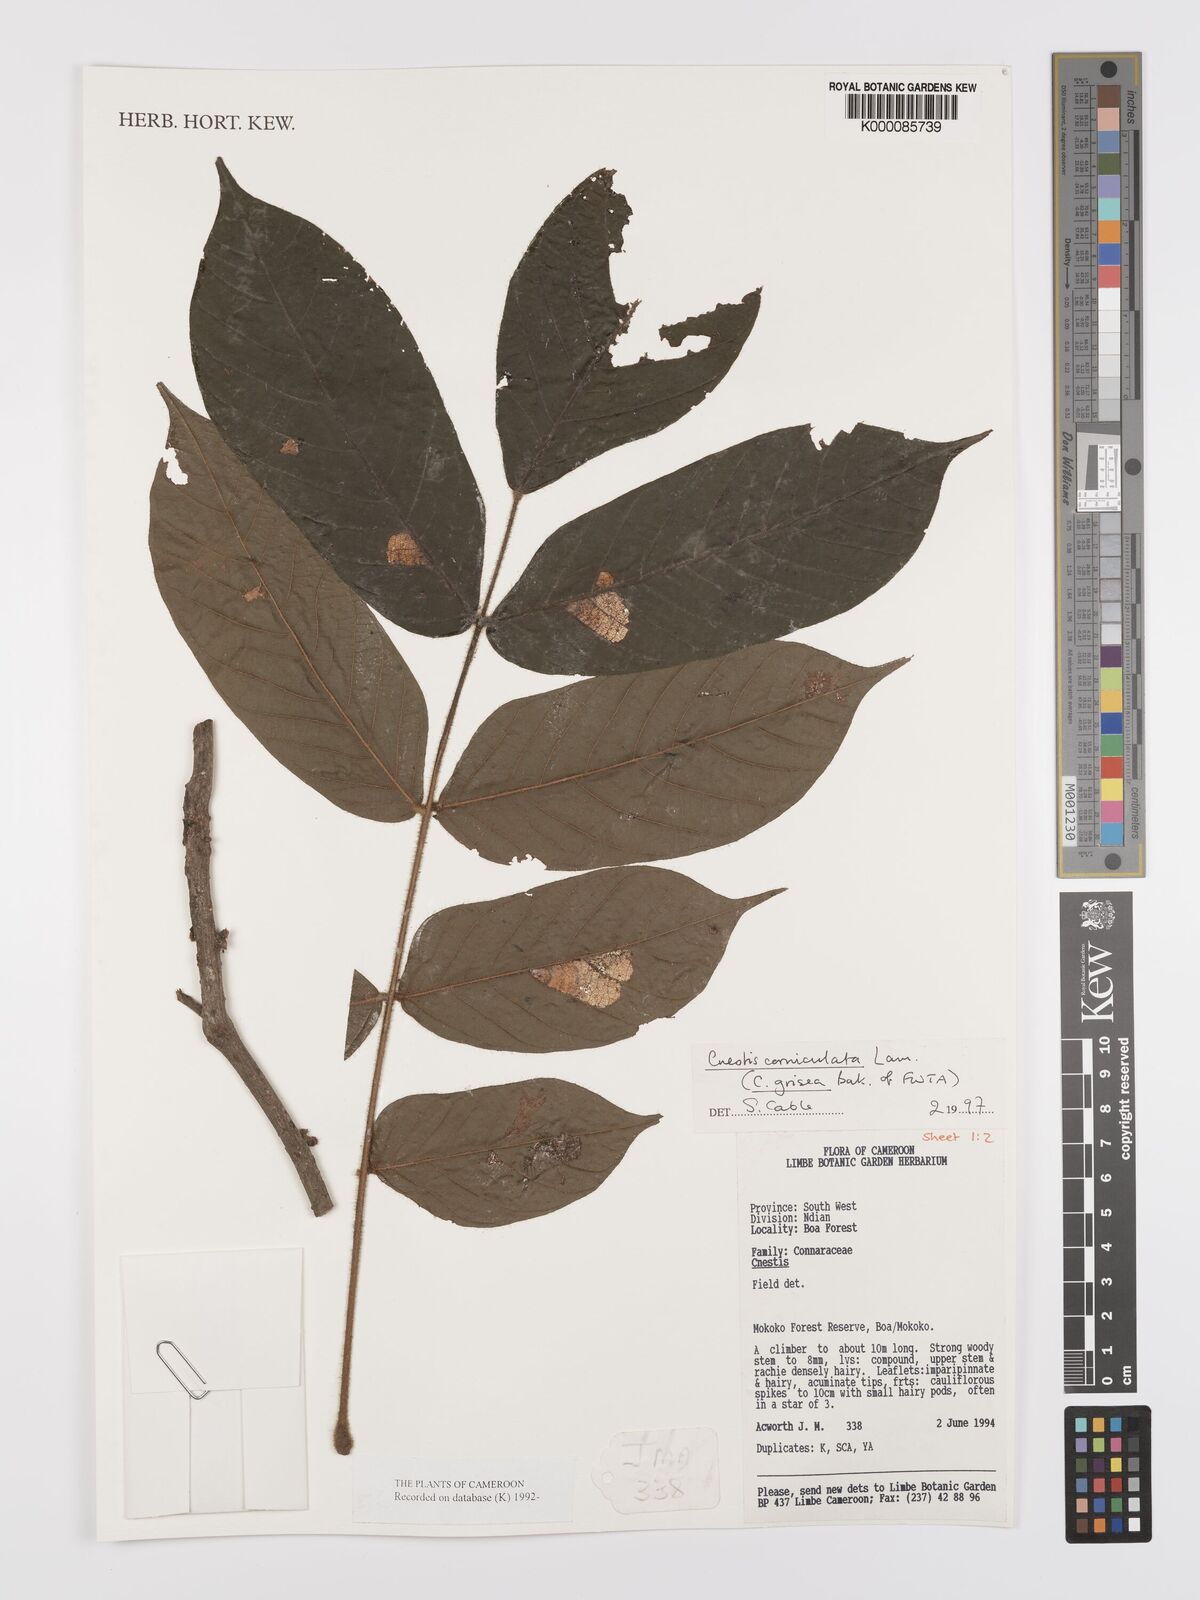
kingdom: Plantae
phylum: Tracheophyta
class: Magnoliopsida
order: Oxalidales
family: Connaraceae
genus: Cnestis
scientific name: Cnestis corniculata
